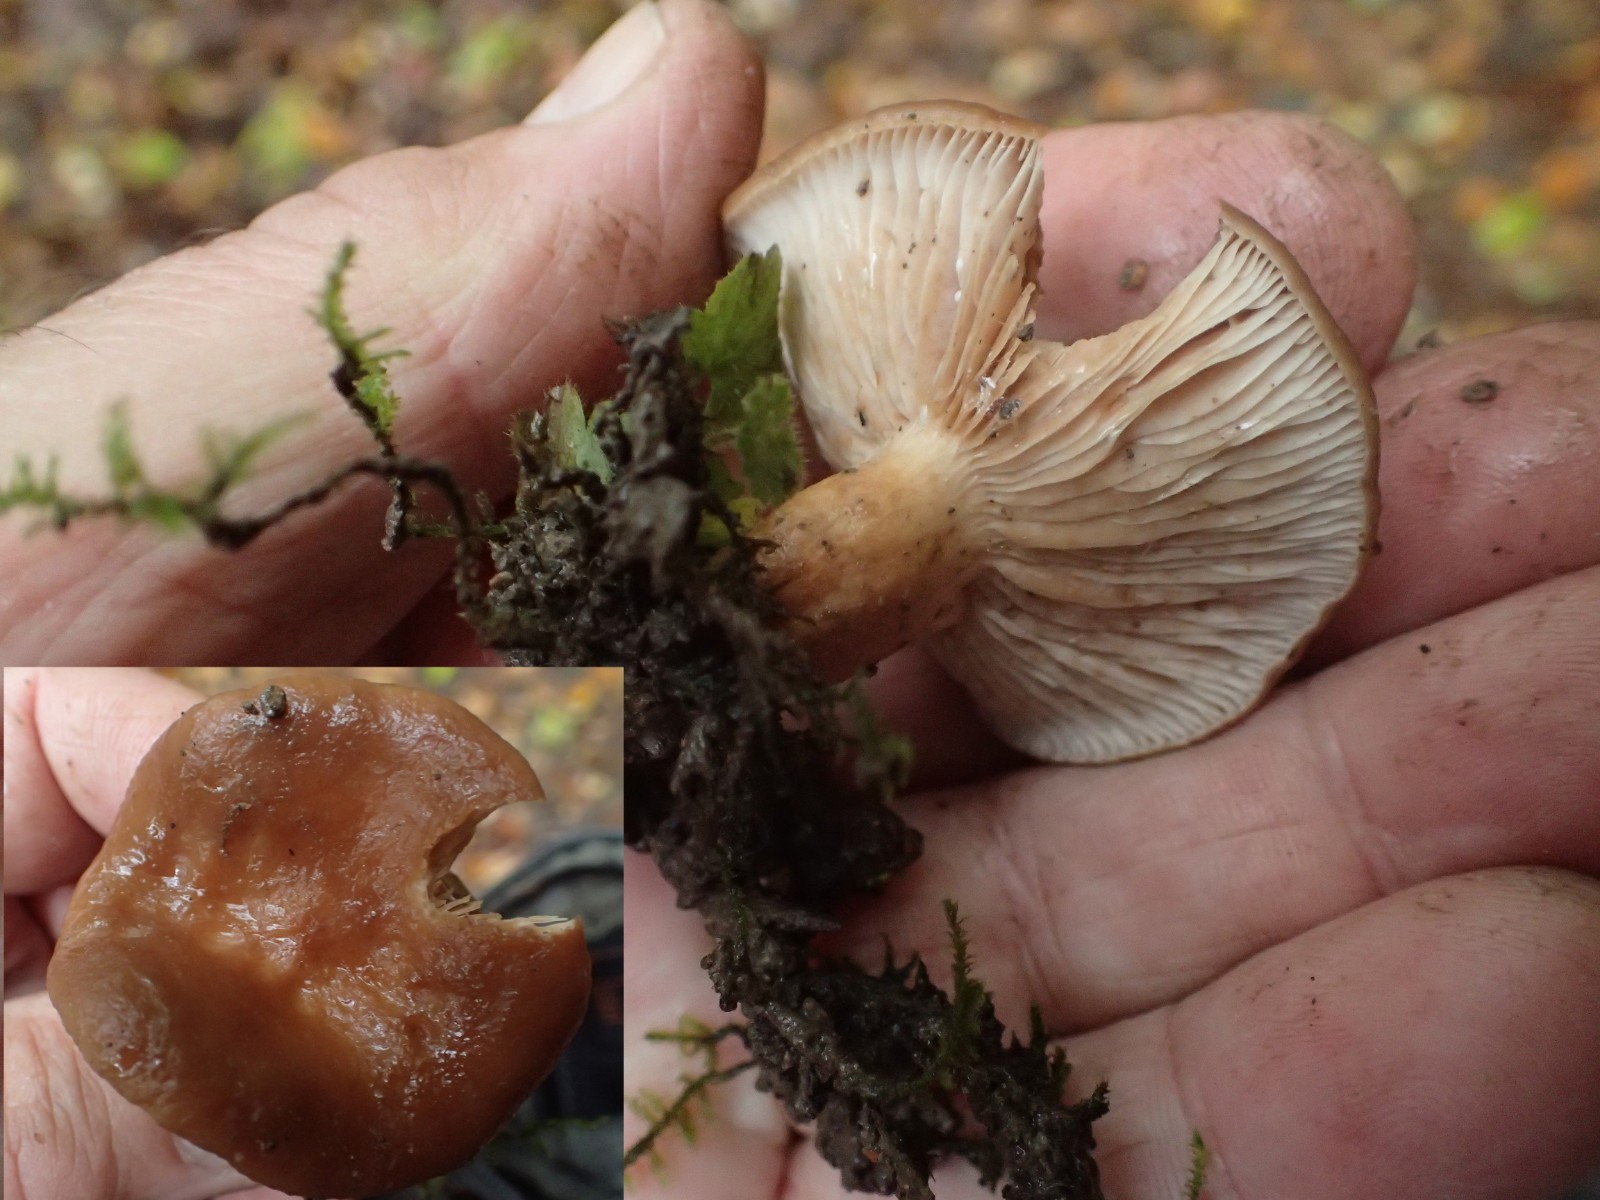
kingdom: Fungi
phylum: Basidiomycota
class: Agaricomycetes
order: Russulales
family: Russulaceae
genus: Lactarius
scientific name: Lactarius
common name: mælkehat
